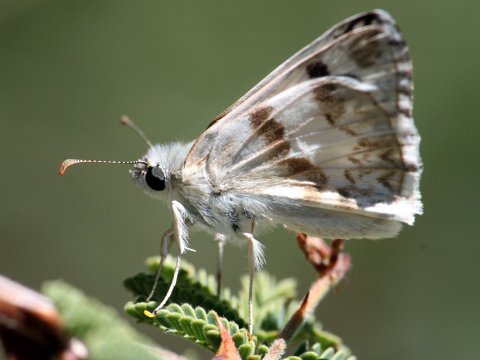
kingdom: Animalia
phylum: Arthropoda
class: Insecta
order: Lepidoptera
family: Hesperiidae
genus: Heliopetes
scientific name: Heliopetes ericetorum
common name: Northern White-Skipper
